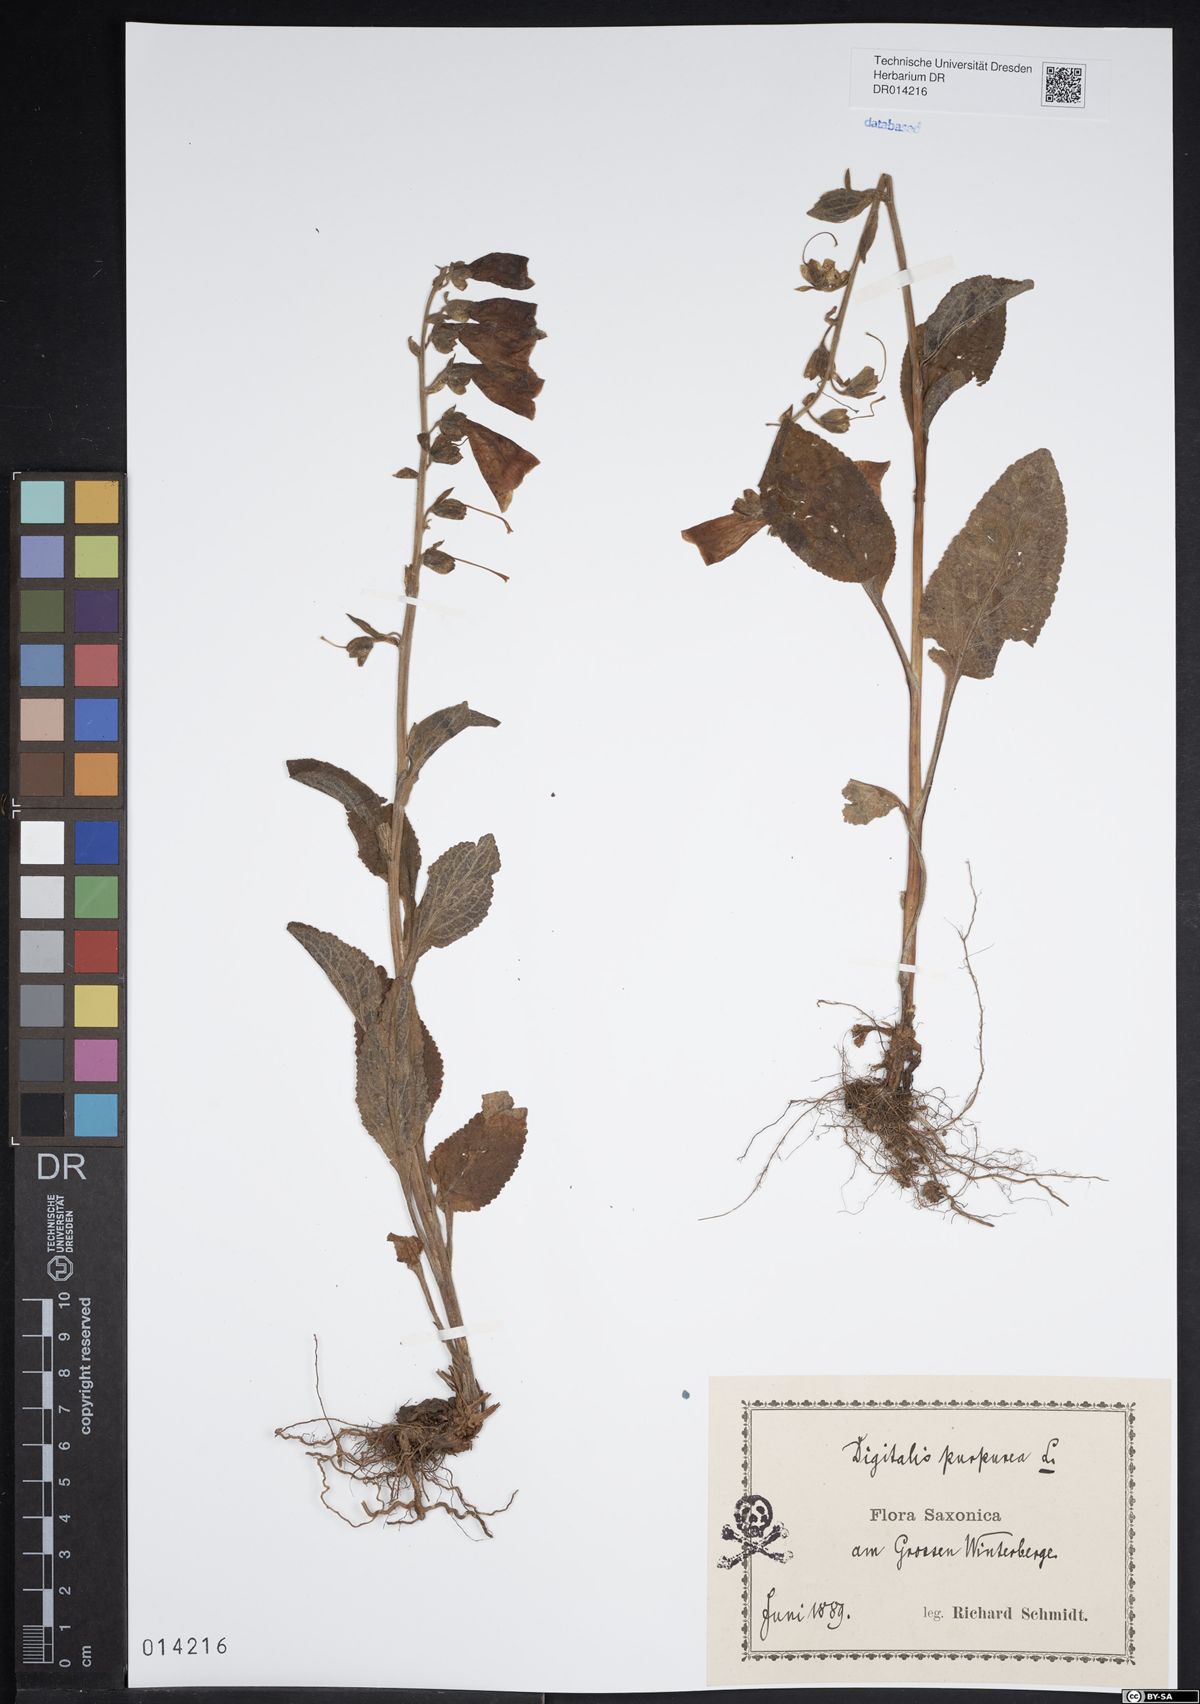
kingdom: Plantae
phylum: Tracheophyta
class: Magnoliopsida
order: Lamiales
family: Plantaginaceae
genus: Digitalis
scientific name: Digitalis purpurea
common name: Foxglove
